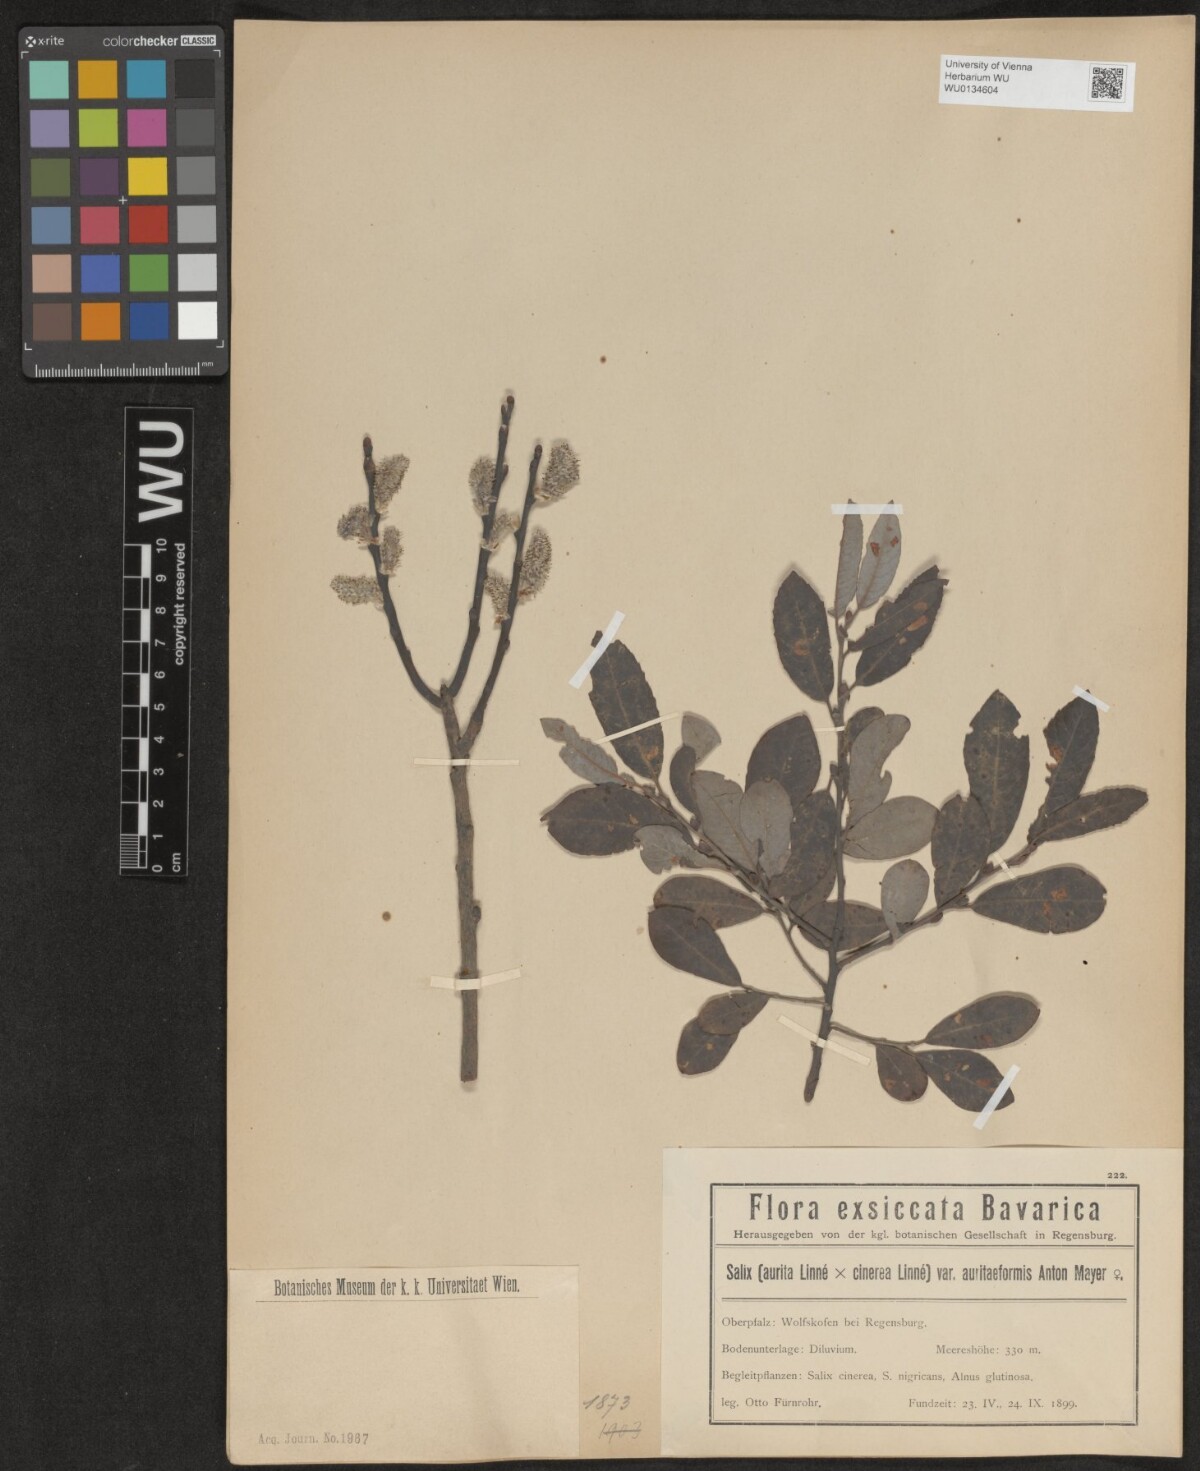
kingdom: Plantae
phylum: Tracheophyta
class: Magnoliopsida
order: Malpighiales
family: Salicaceae
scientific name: Salicaceae
